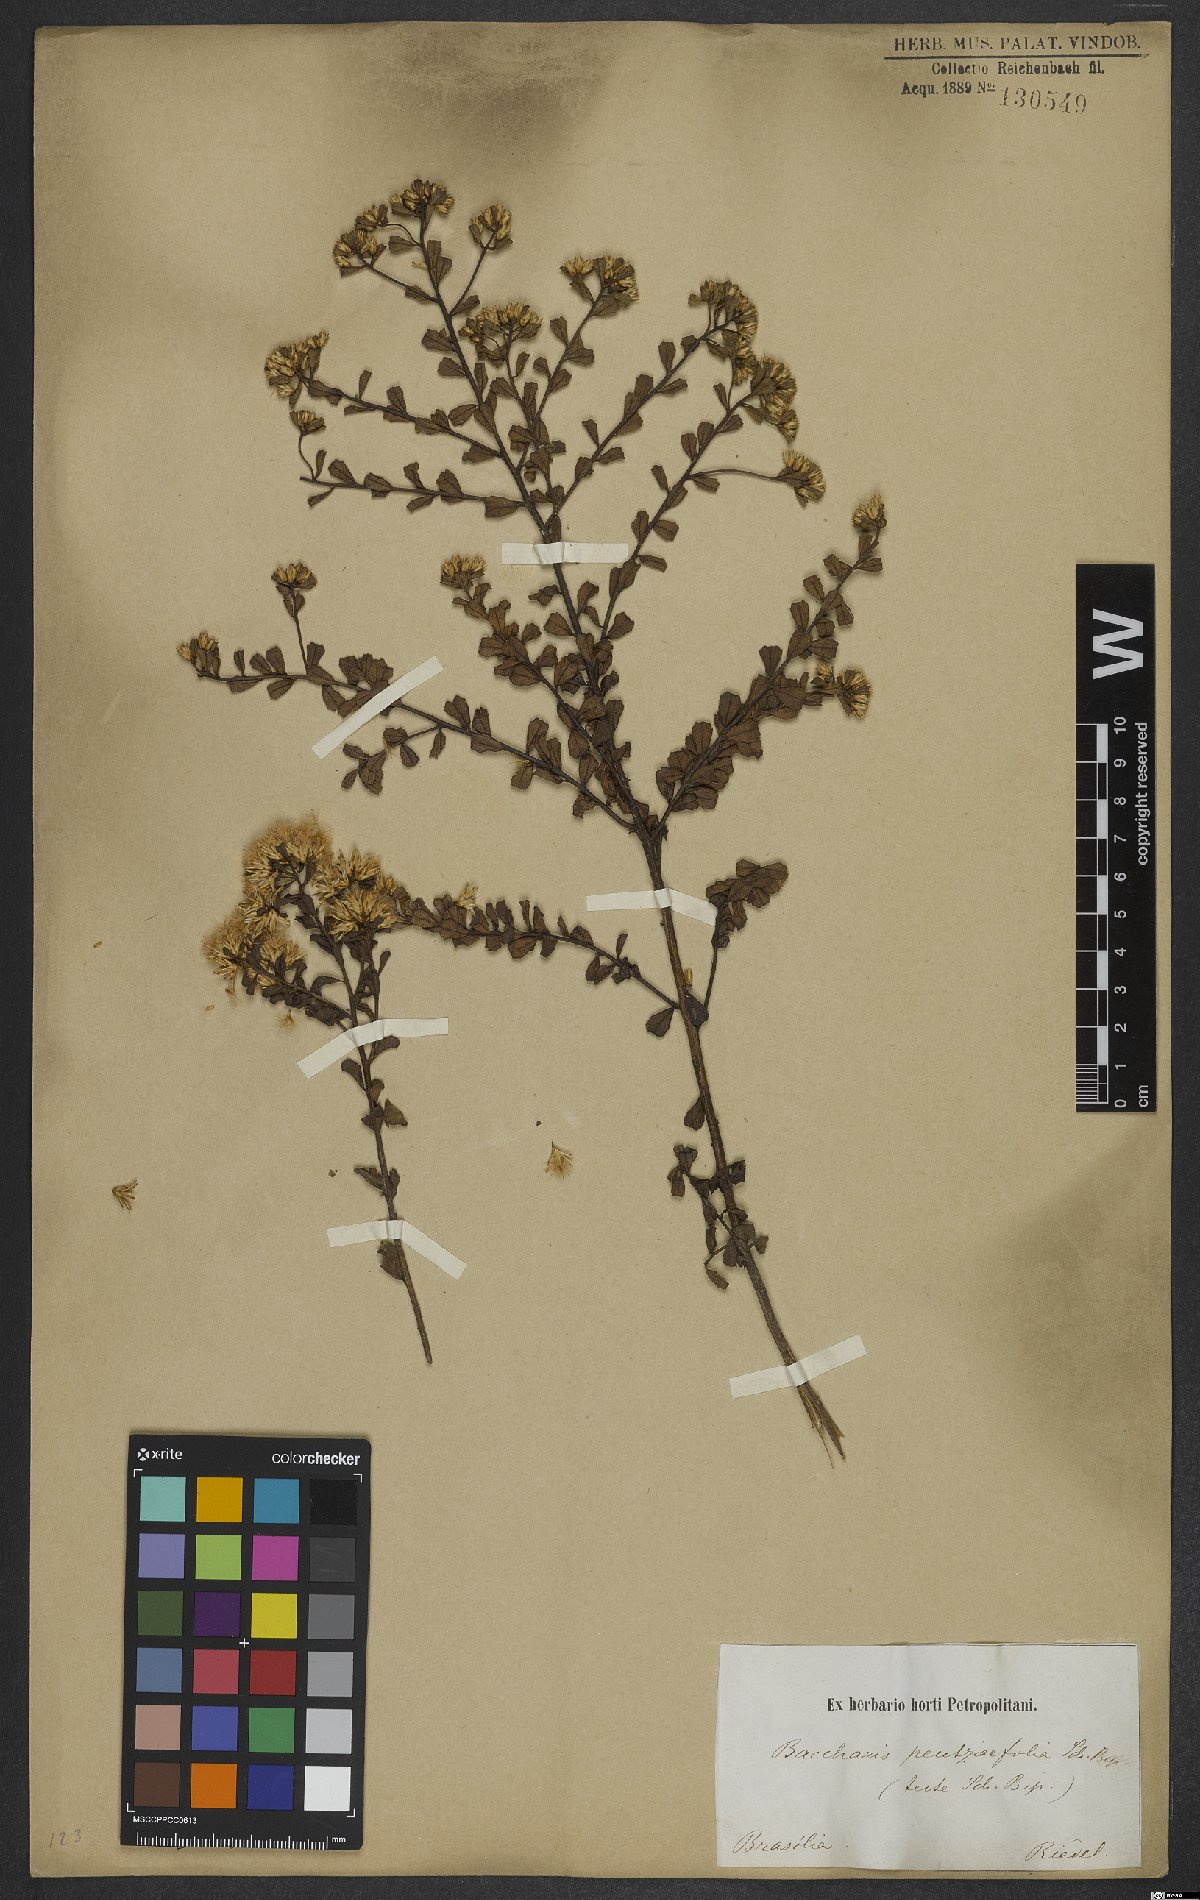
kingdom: Plantae
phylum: Tracheophyta
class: Magnoliopsida
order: Asterales
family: Asteraceae
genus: Baccharis
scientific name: Baccharis pentziifolia
